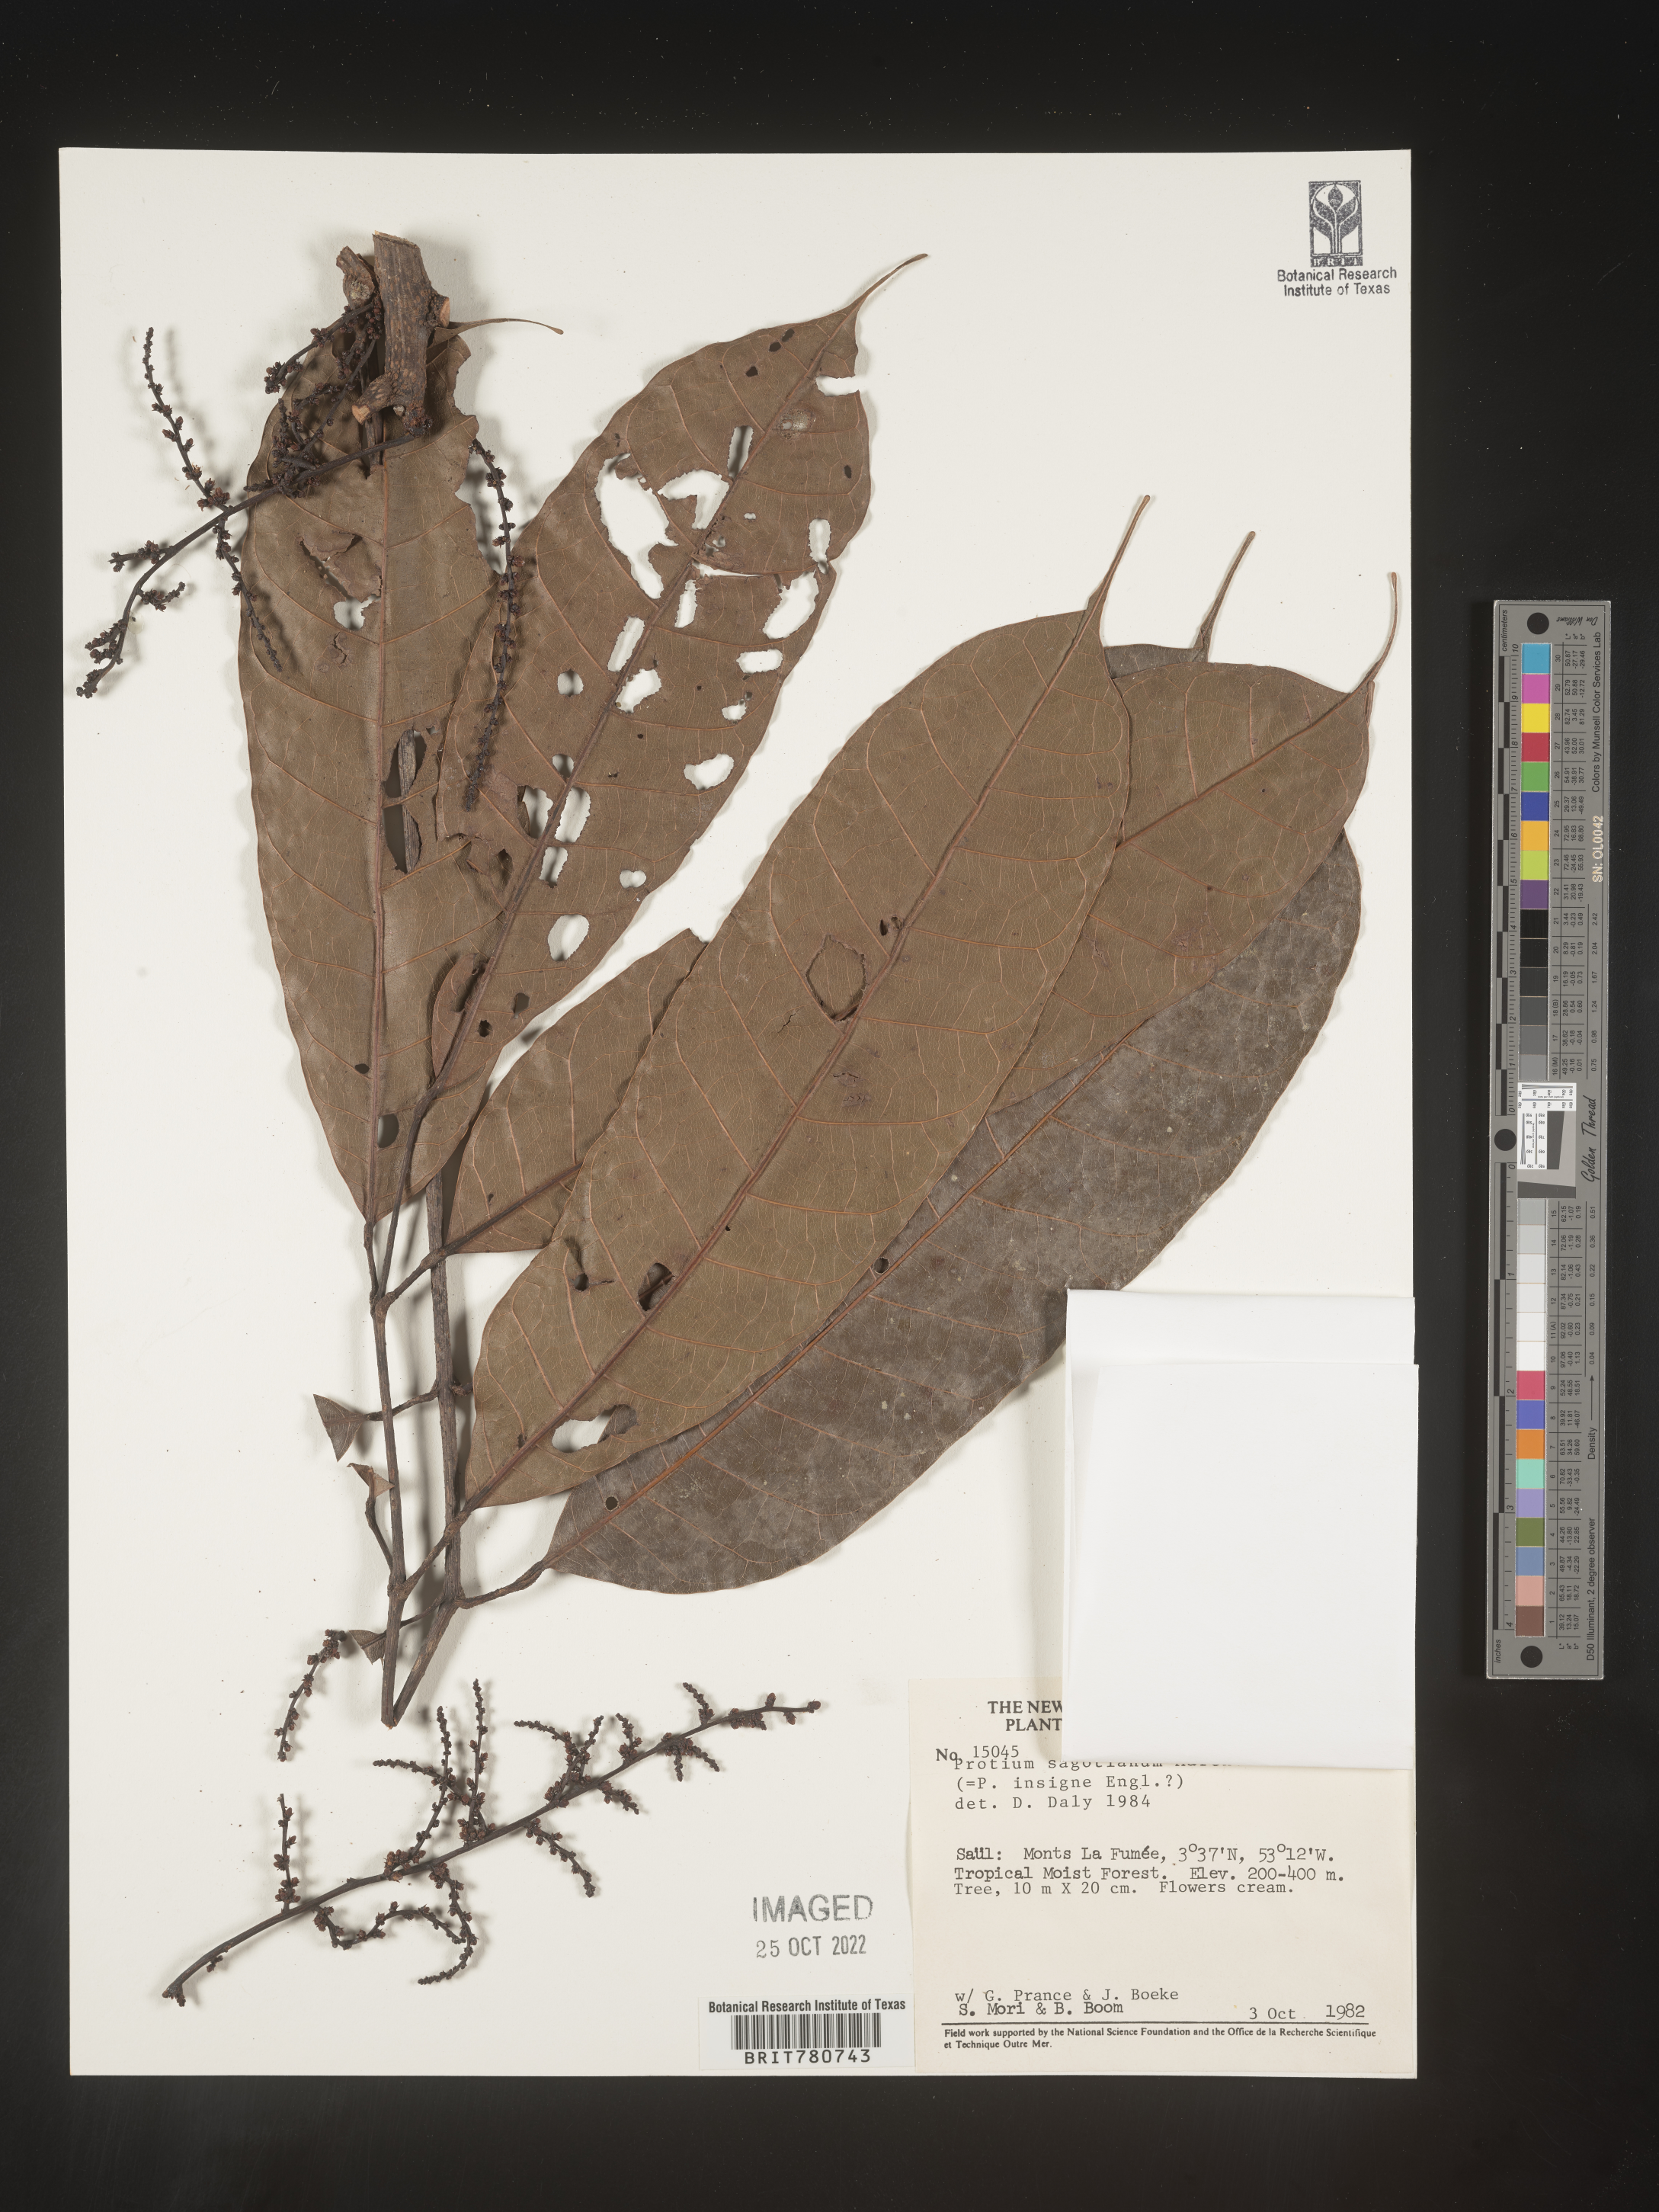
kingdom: Plantae
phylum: Tracheophyta
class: Magnoliopsida
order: Sapindales
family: Burseraceae
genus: Protium
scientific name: Protium
